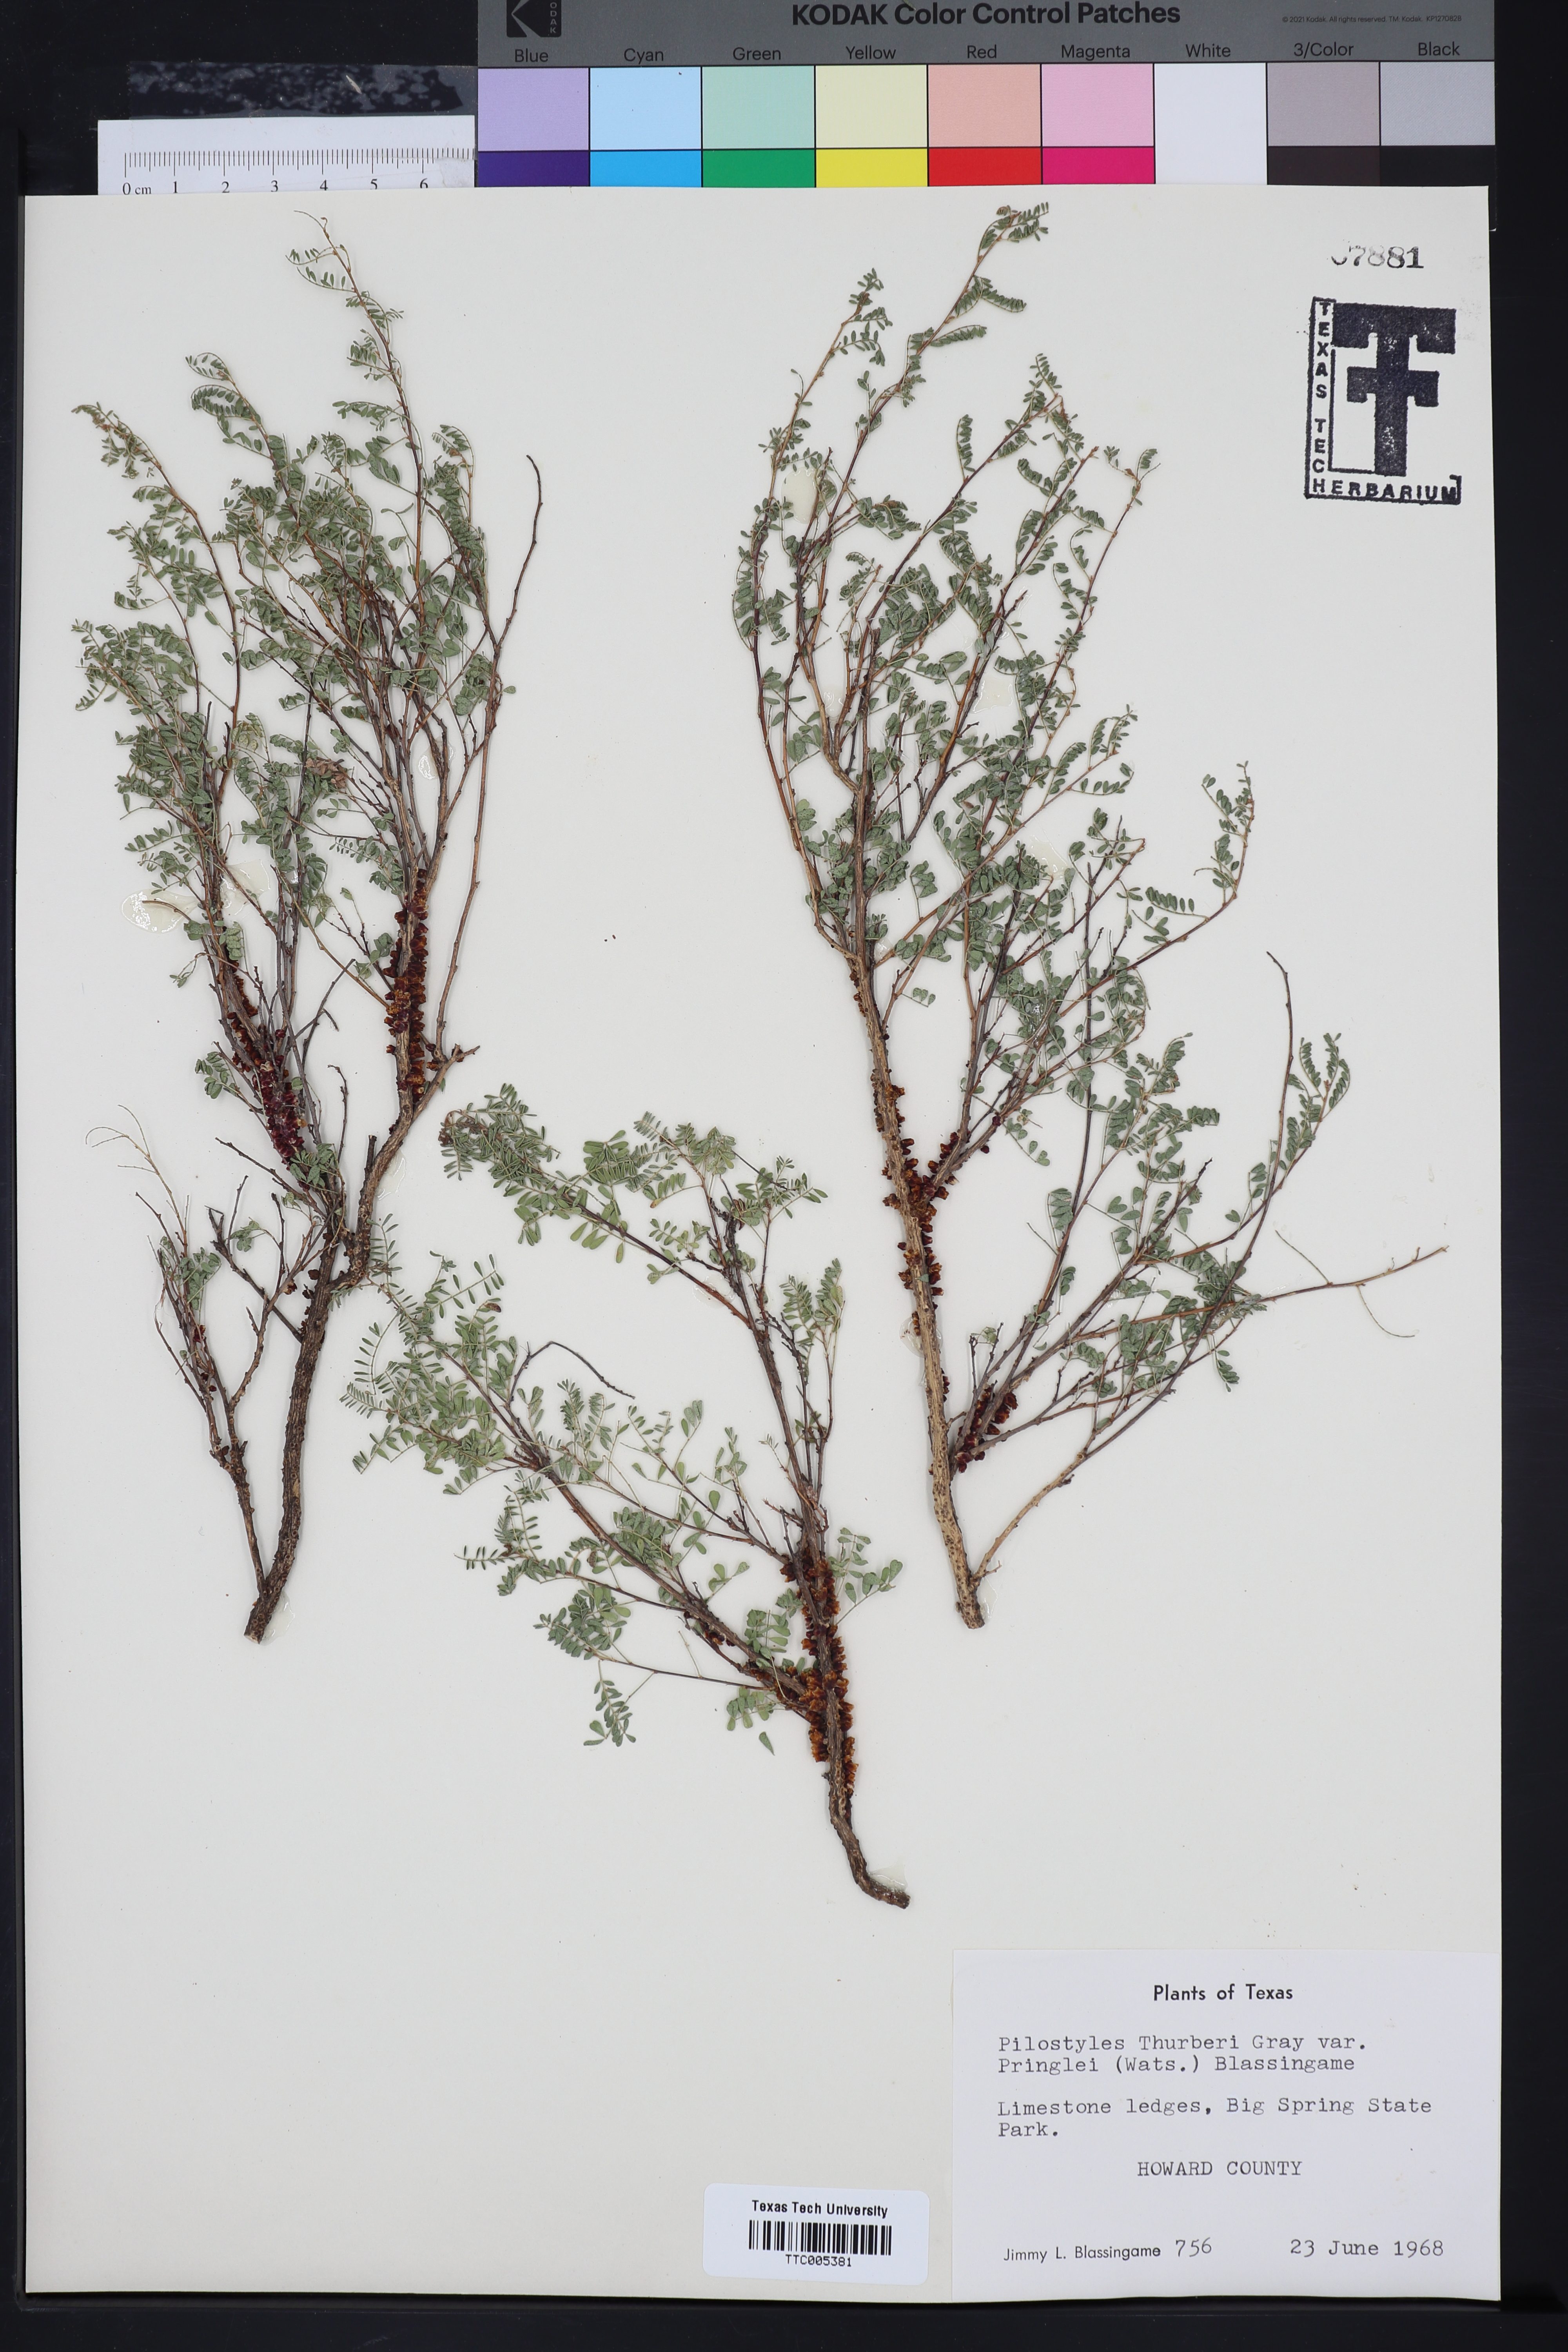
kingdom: Plantae
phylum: Tracheophyta
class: Magnoliopsida
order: Cucurbitales
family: Apodanthaceae
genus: Pilostyles
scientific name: Pilostyles thurberi
